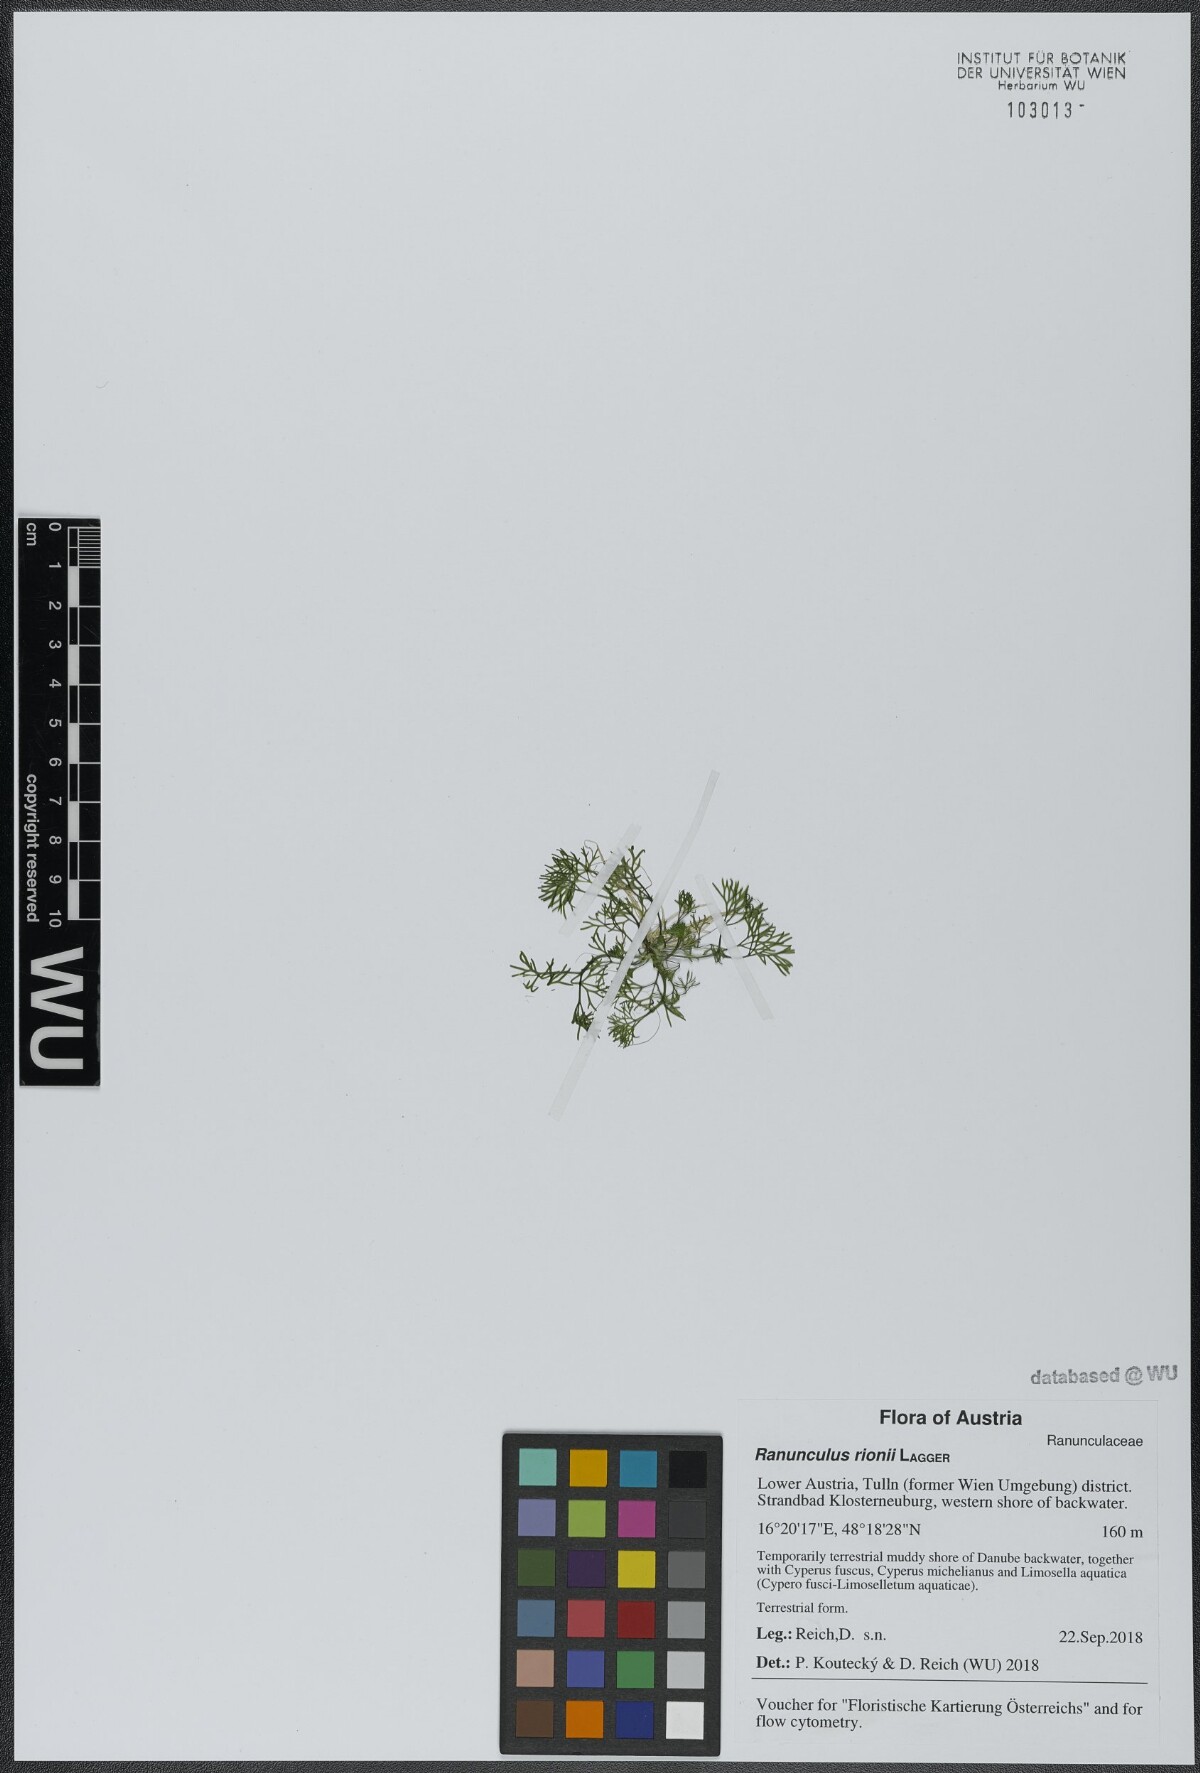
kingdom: Plantae
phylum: Tracheophyta
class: Magnoliopsida
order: Ranunculales
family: Ranunculaceae
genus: Ranunculus
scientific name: Ranunculus rionii
